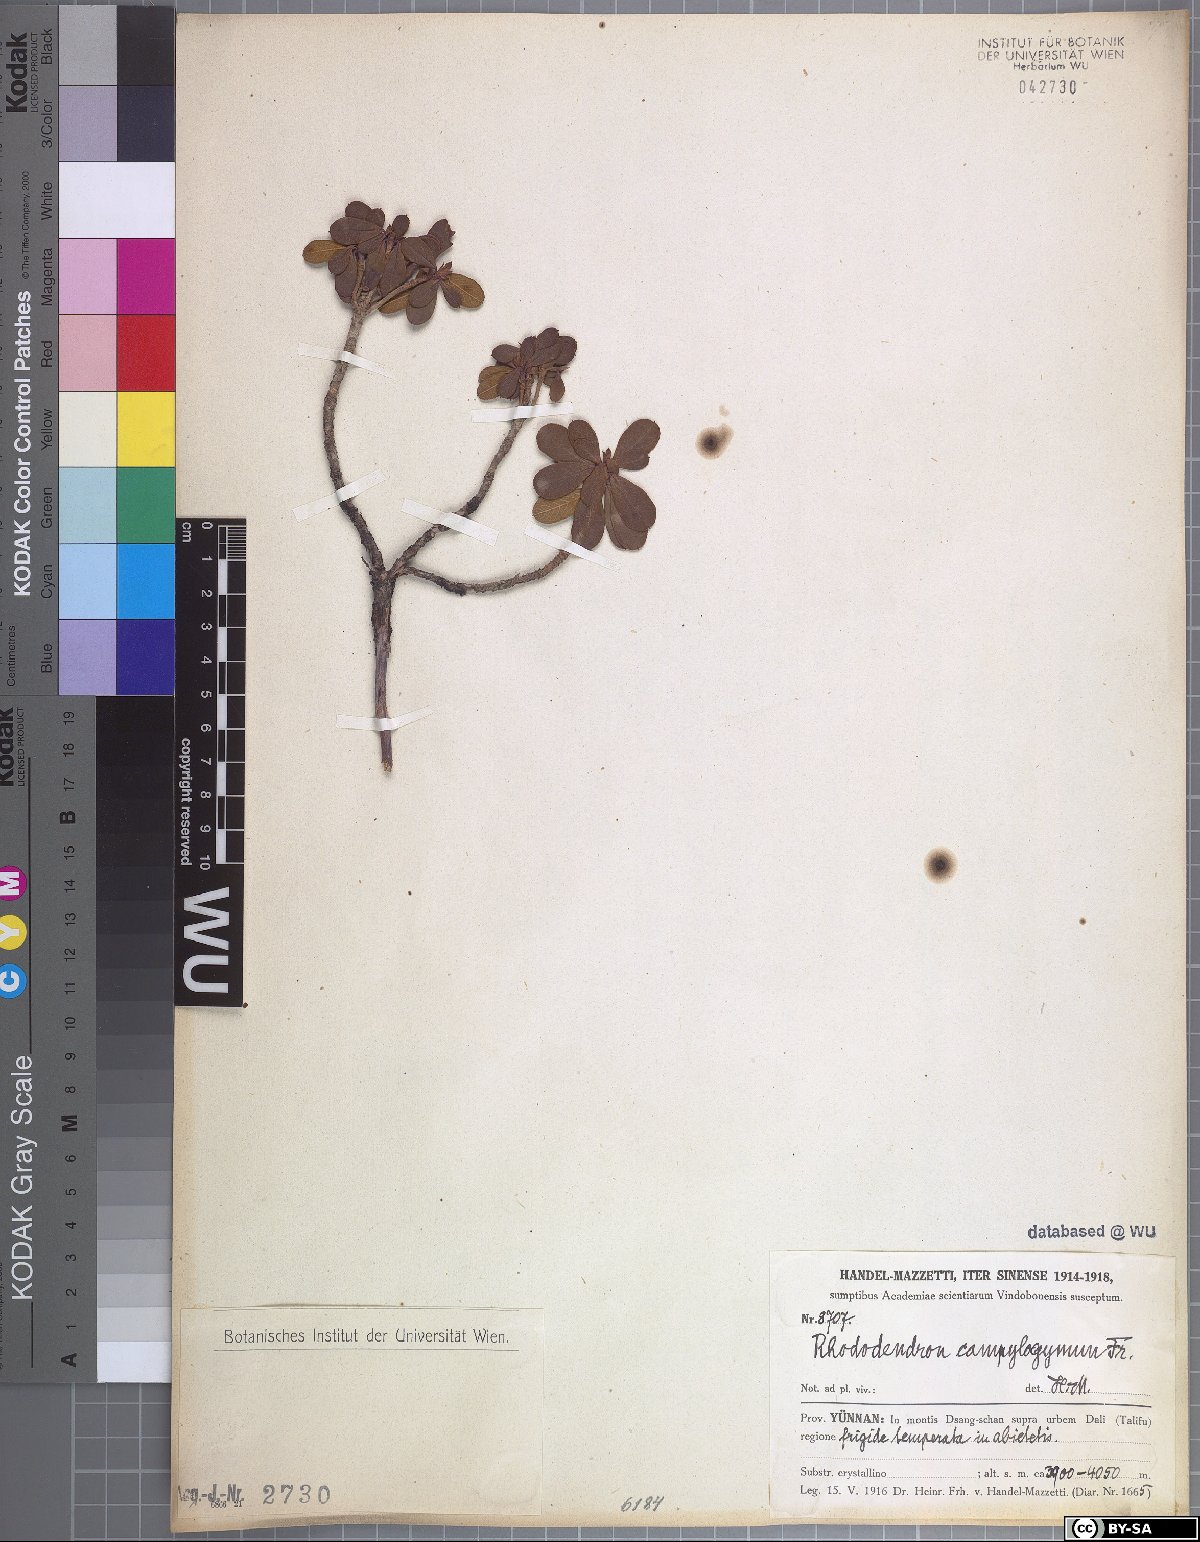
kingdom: Plantae
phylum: Tracheophyta
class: Magnoliopsida
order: Ericales
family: Ericaceae
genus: Rhododendron
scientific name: Rhododendron campylogynum
